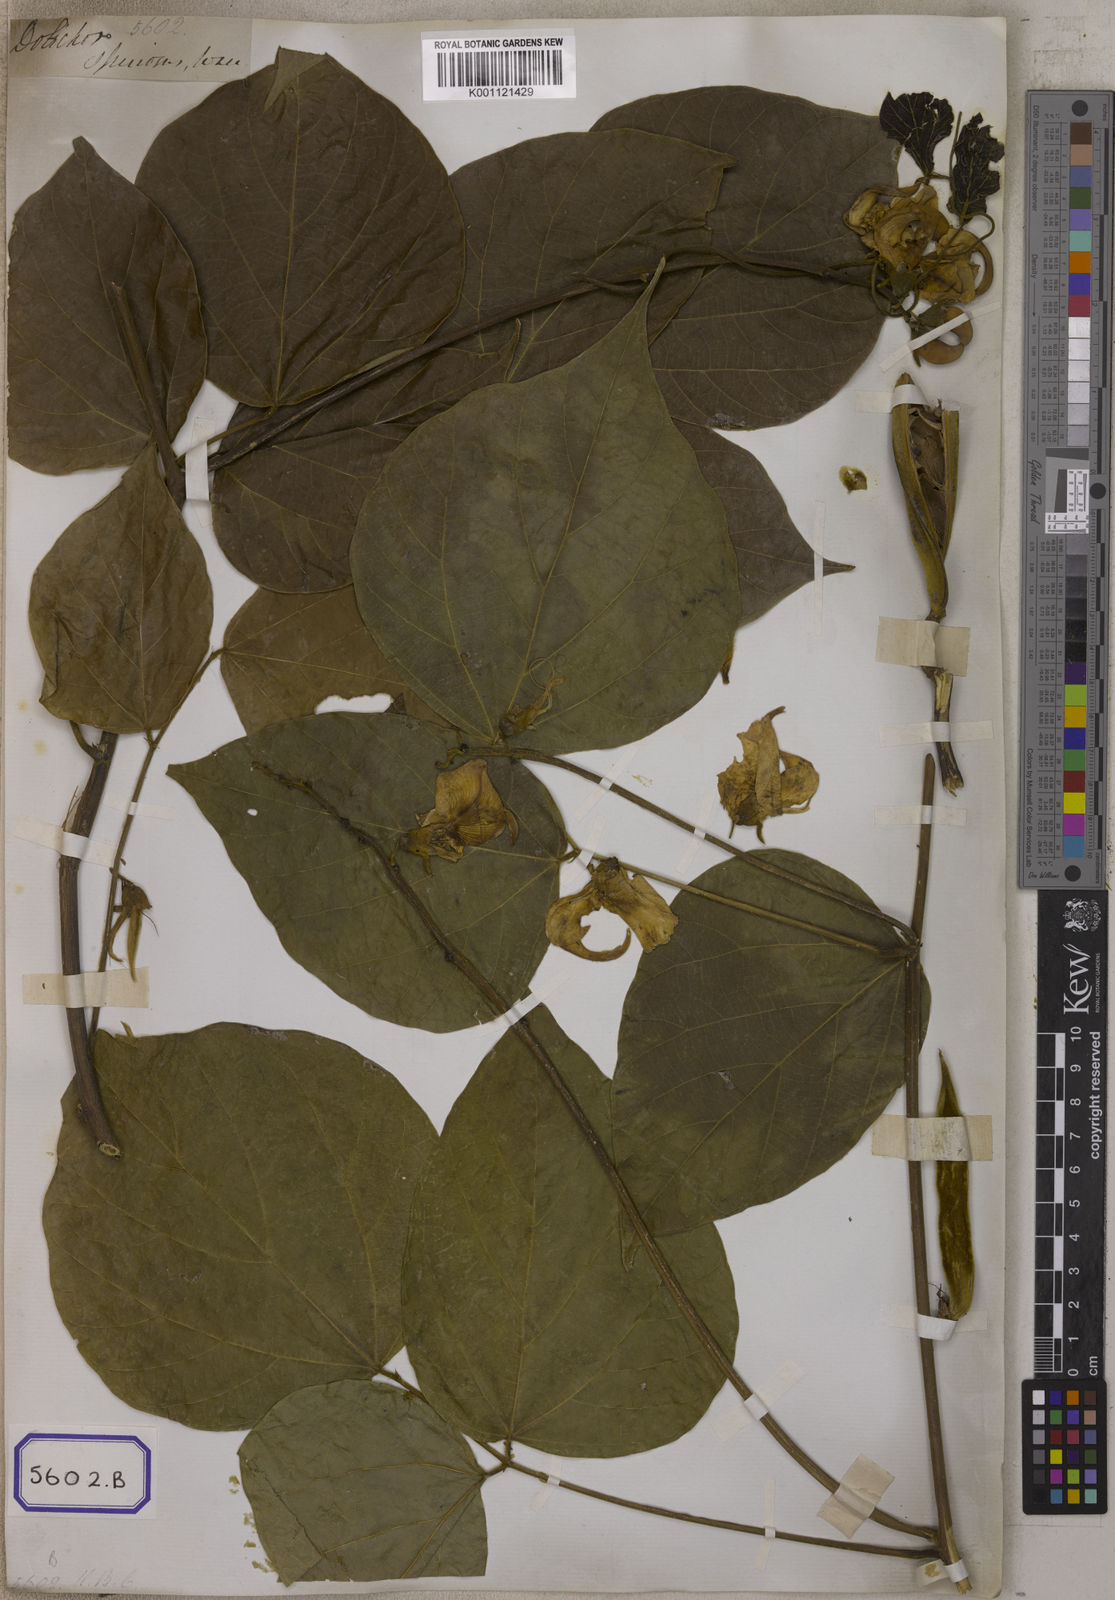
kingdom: Plantae
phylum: Tracheophyta
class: Magnoliopsida
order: Fabales
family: Fabaceae
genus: Macroptilium
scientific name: Macroptilium gracile
